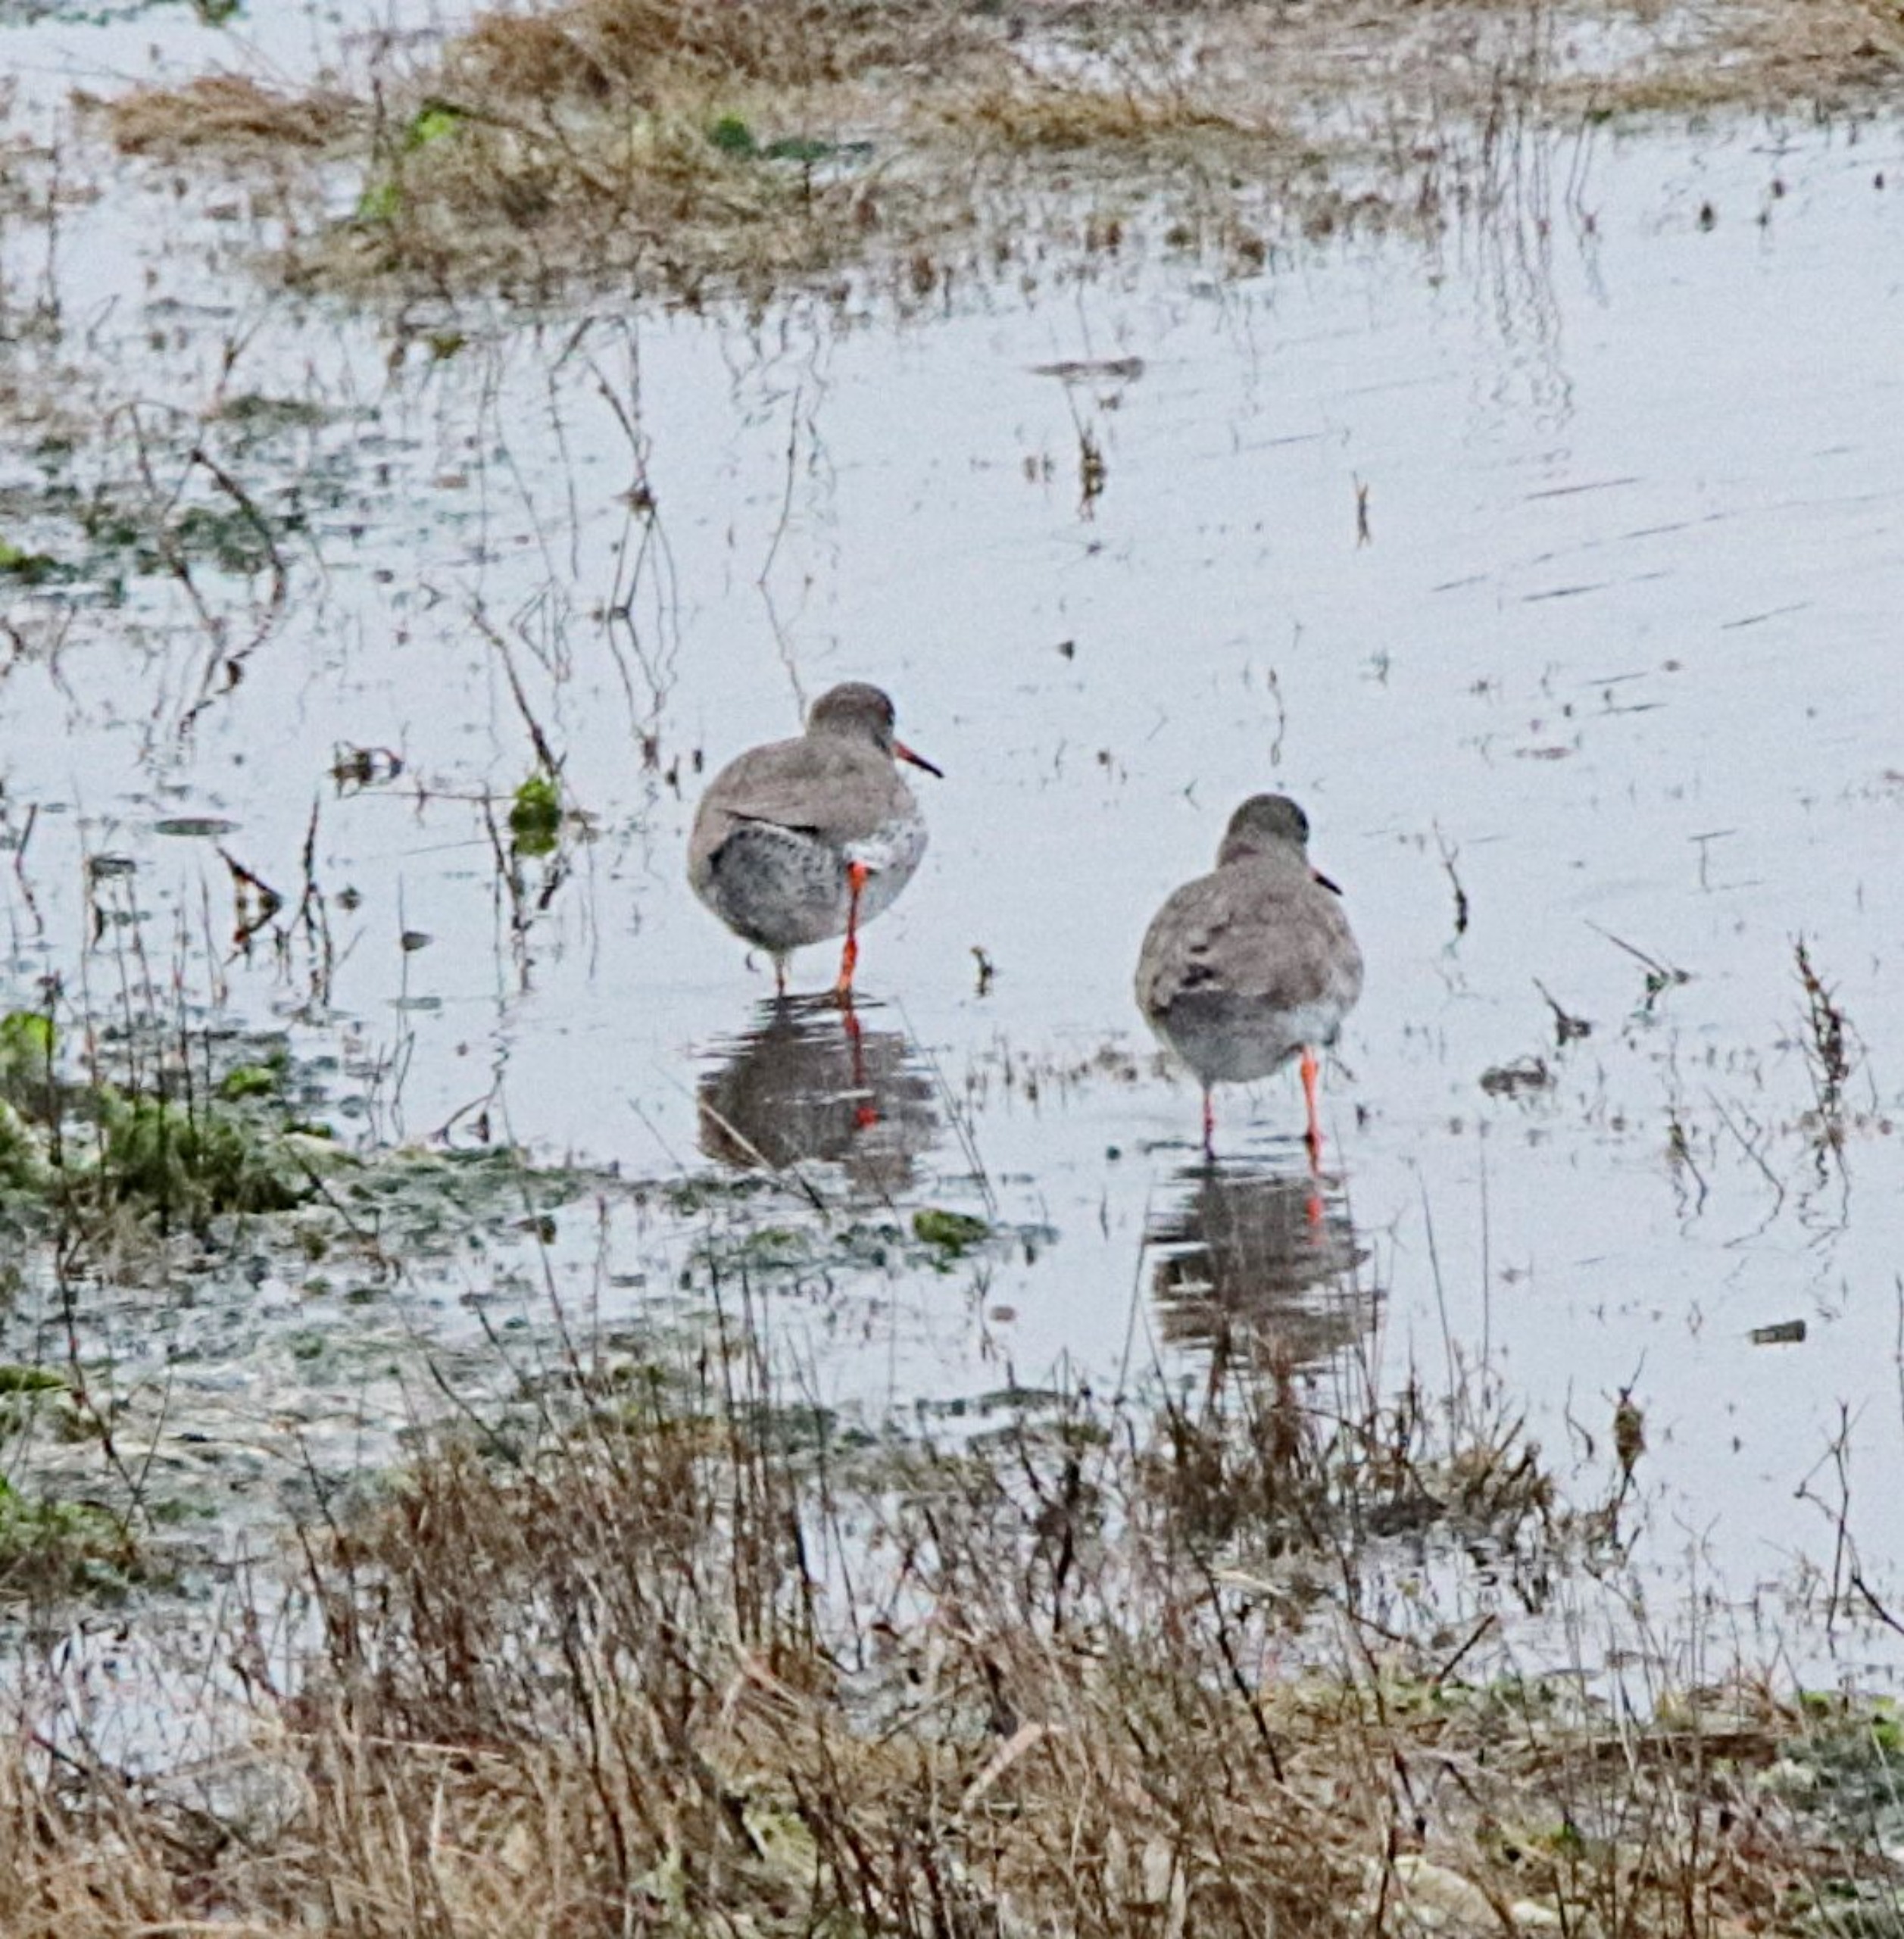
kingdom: Animalia
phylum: Chordata
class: Aves
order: Charadriiformes
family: Scolopacidae
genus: Tringa
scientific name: Tringa totanus
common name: Rødben
